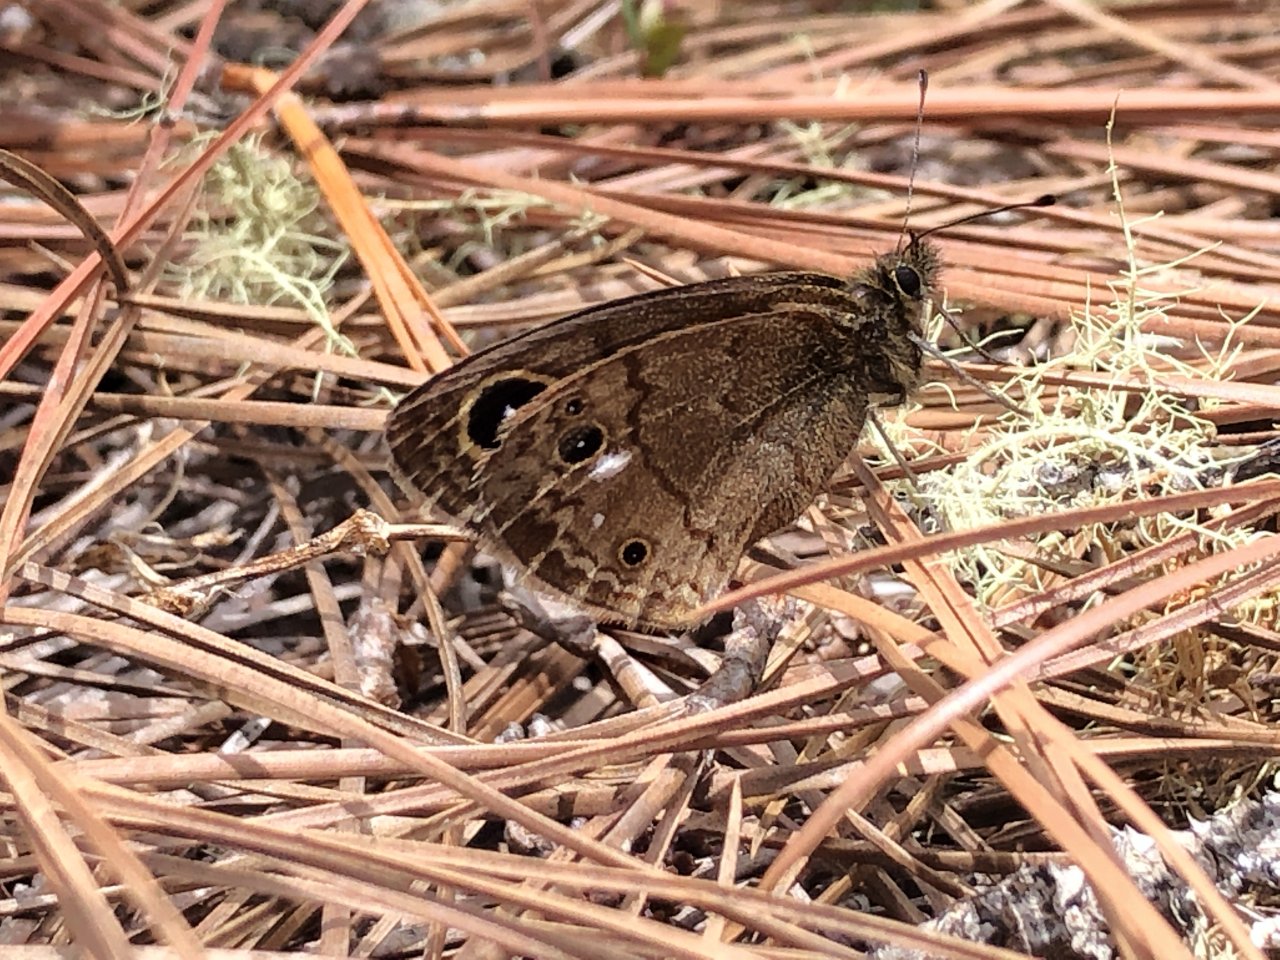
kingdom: Animalia
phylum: Arthropoda
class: Insecta
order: Lepidoptera
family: Nymphalidae
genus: Calisto
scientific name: Calisto sommeri
